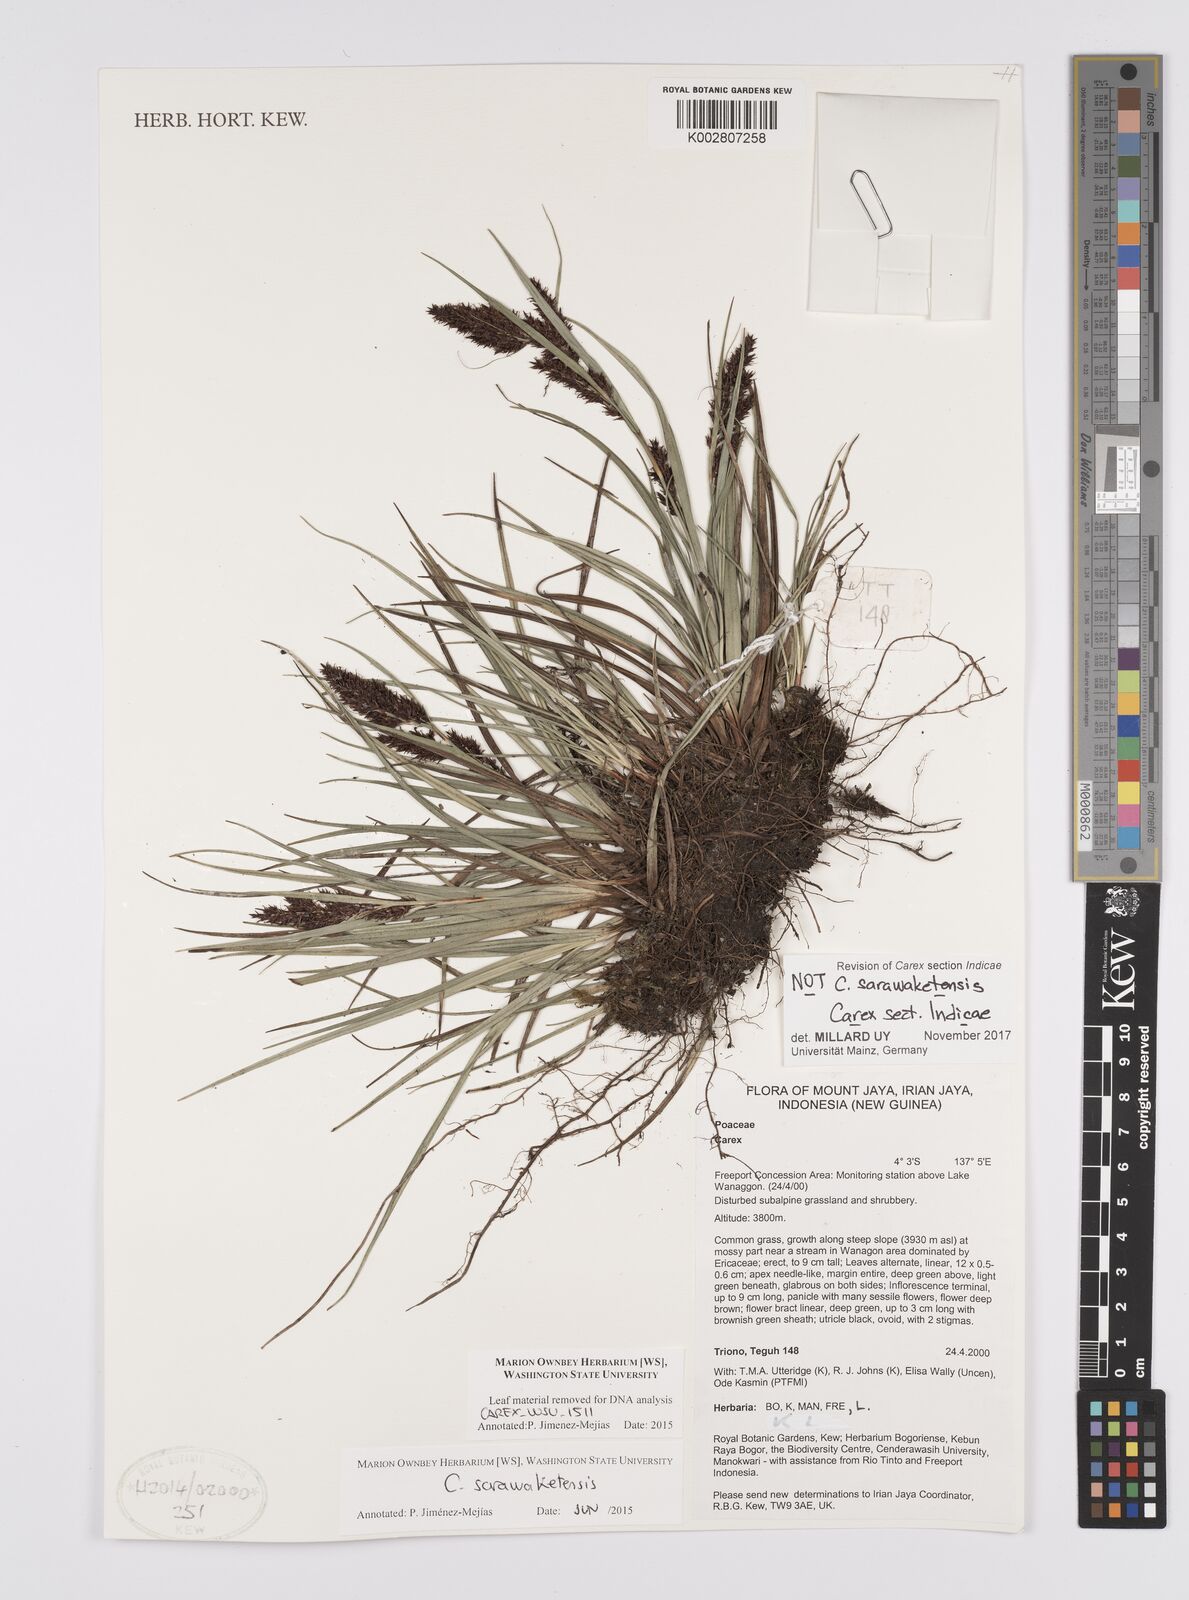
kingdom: Plantae
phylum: Tracheophyta
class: Liliopsida
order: Poales
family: Cyperaceae
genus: Carex
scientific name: Carex
